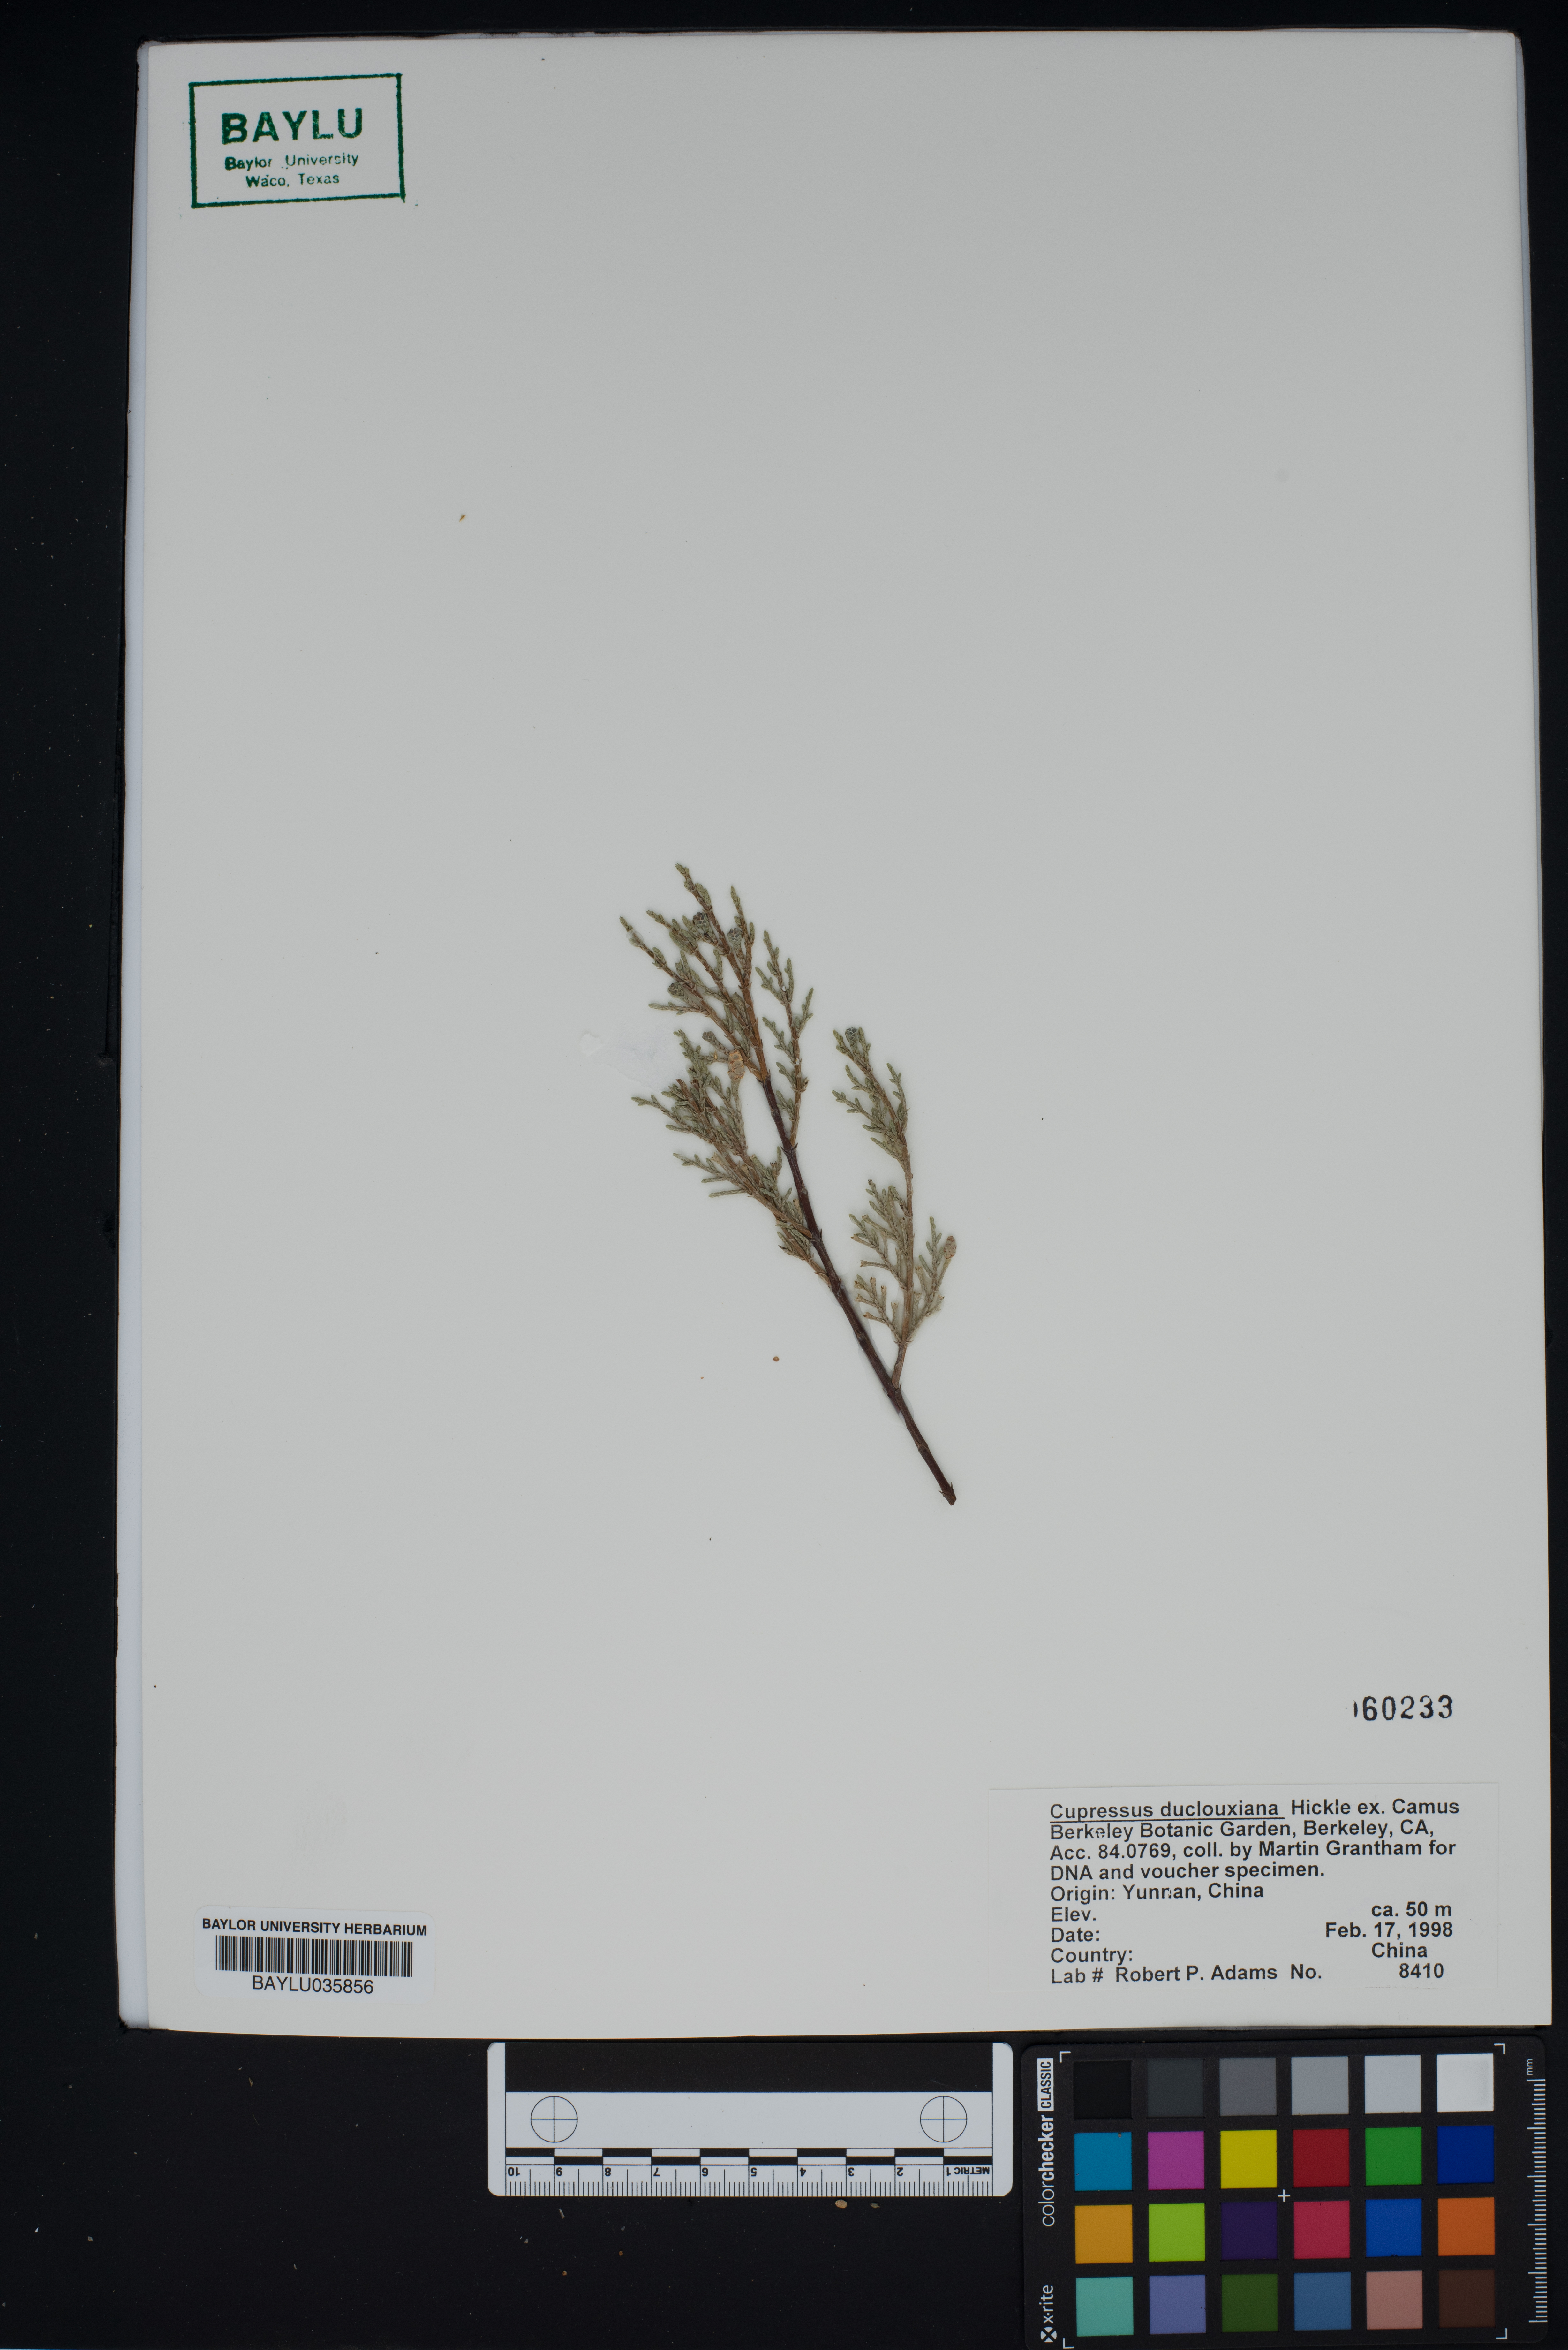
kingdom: Plantae
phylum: Tracheophyta
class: Pinopsida
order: Pinales
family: Cupressaceae
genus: Cupressus
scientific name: Cupressus duclouxiana
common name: Chinese cypress
